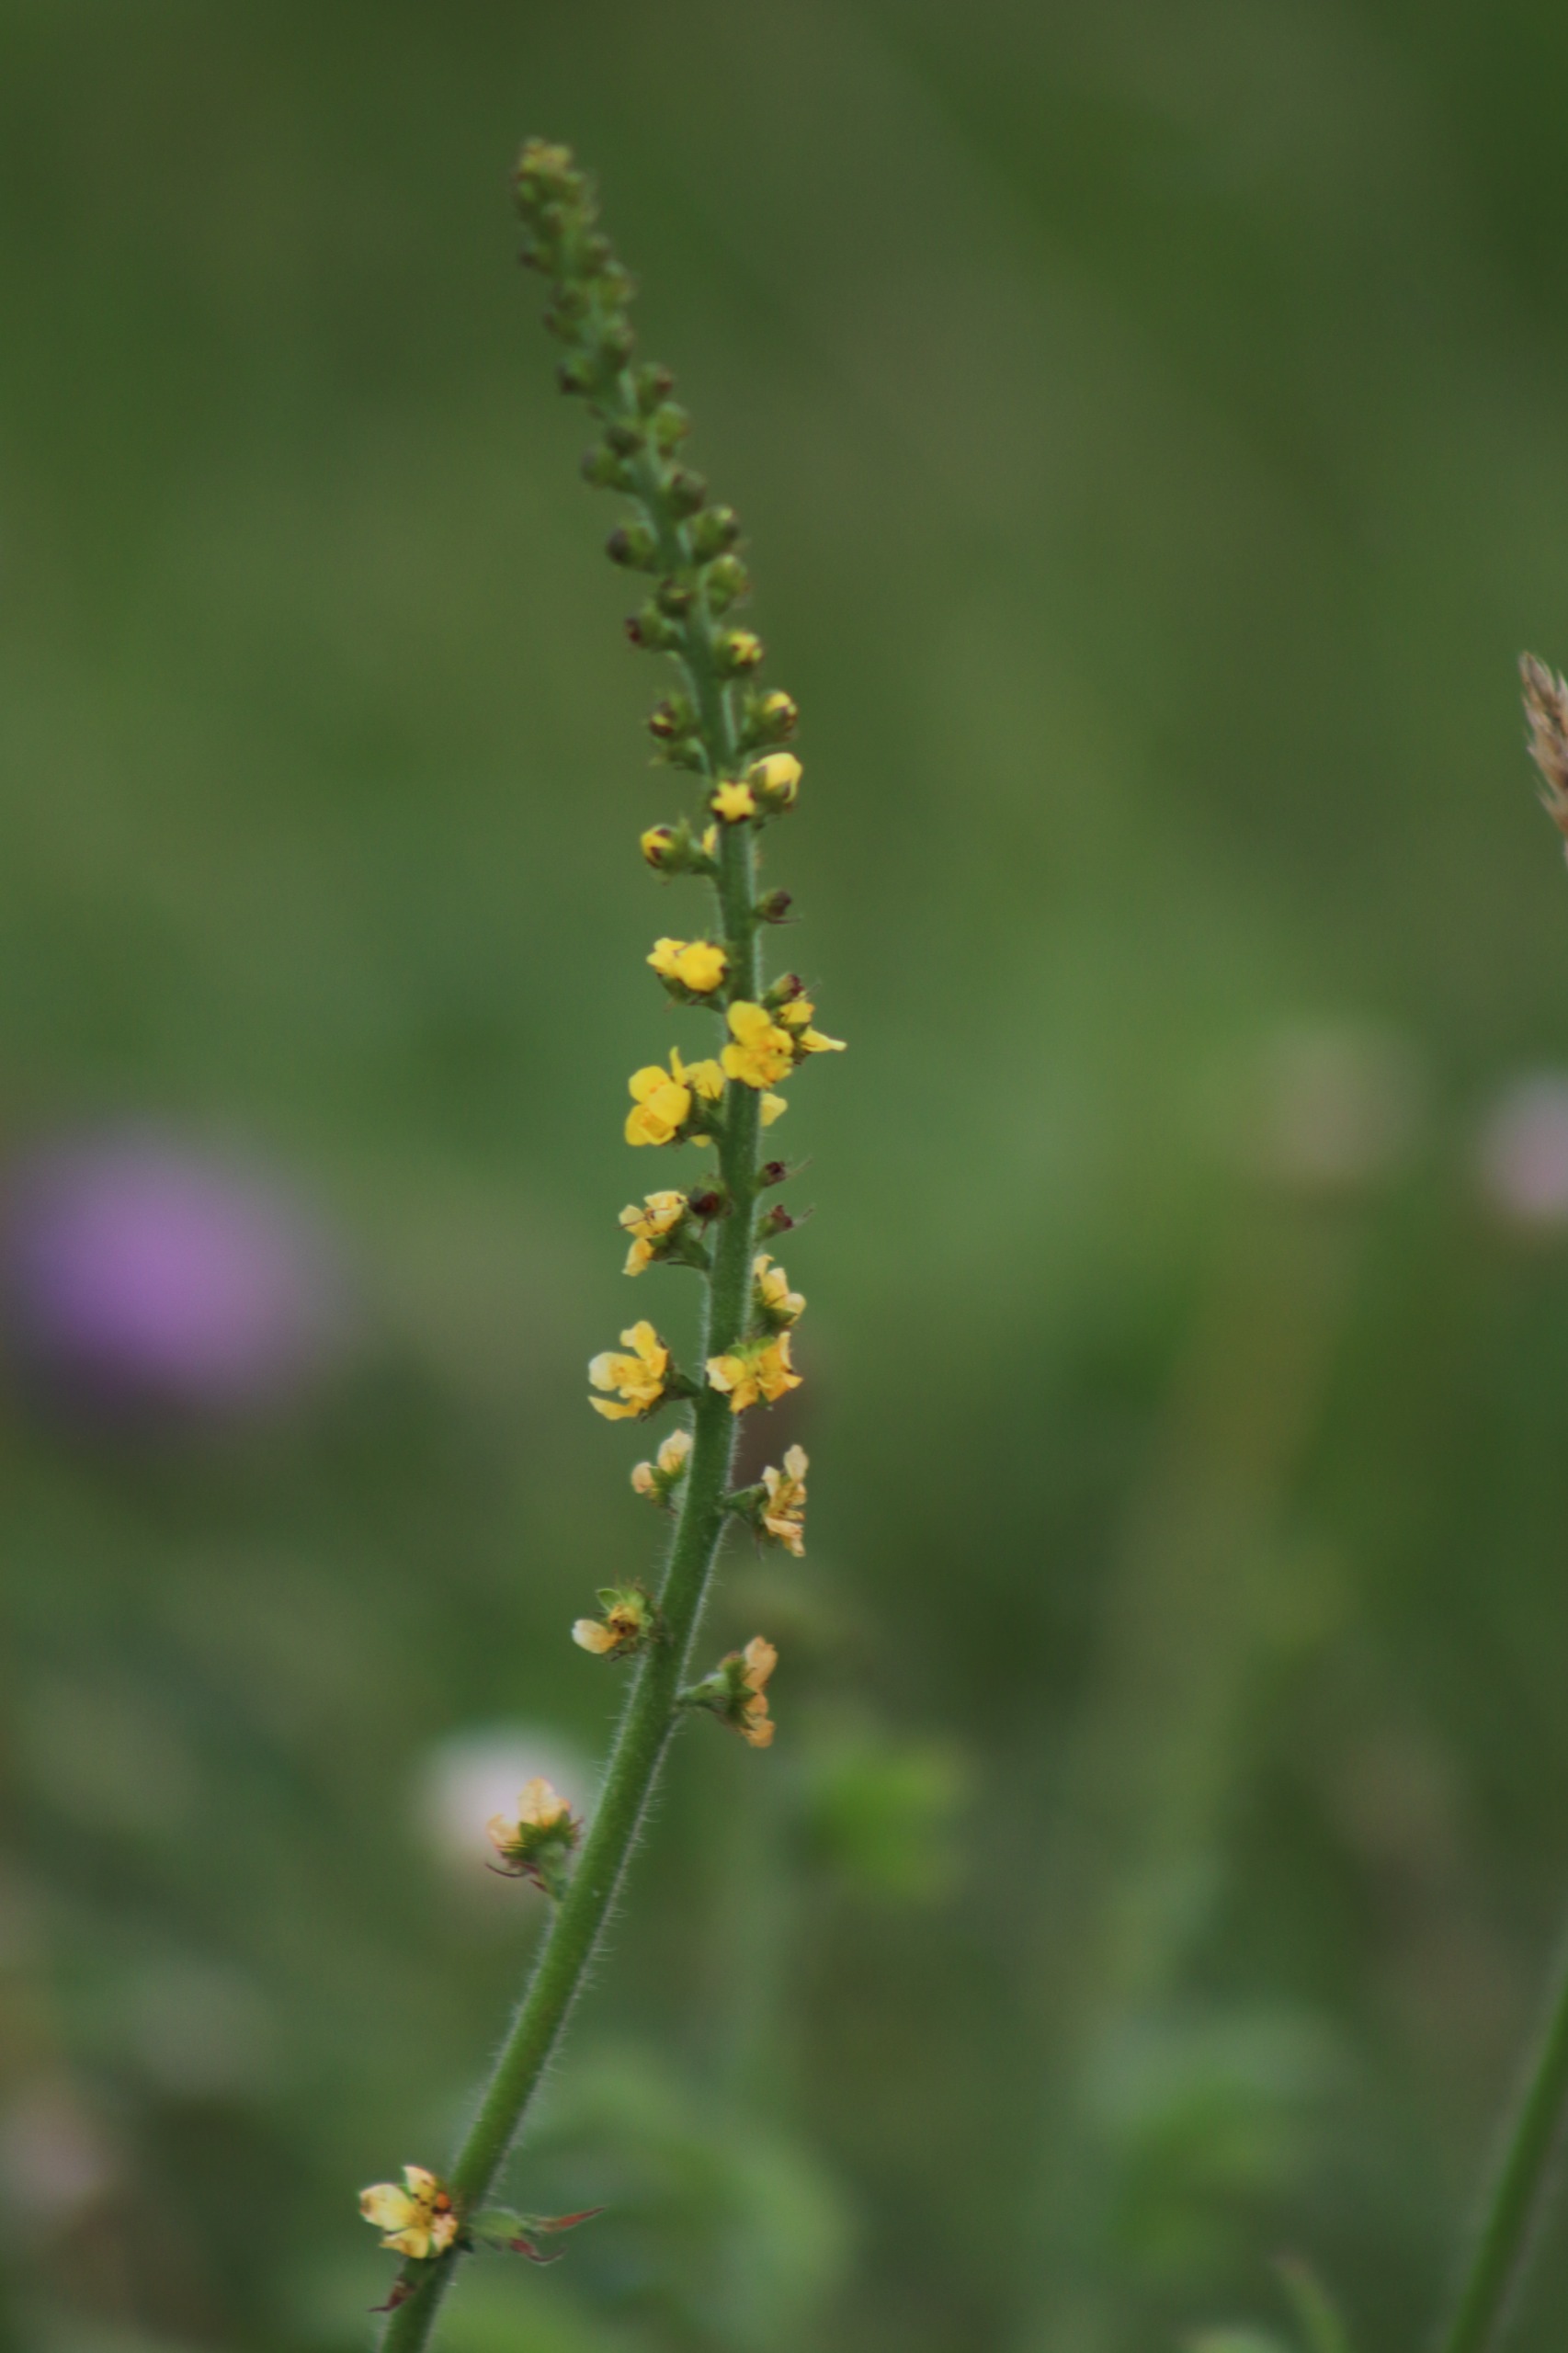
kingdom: Plantae
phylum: Tracheophyta
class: Magnoliopsida
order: Rosales
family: Rosaceae
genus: Agrimonia
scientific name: Agrimonia eupatoria
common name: Almindelig agermåne
